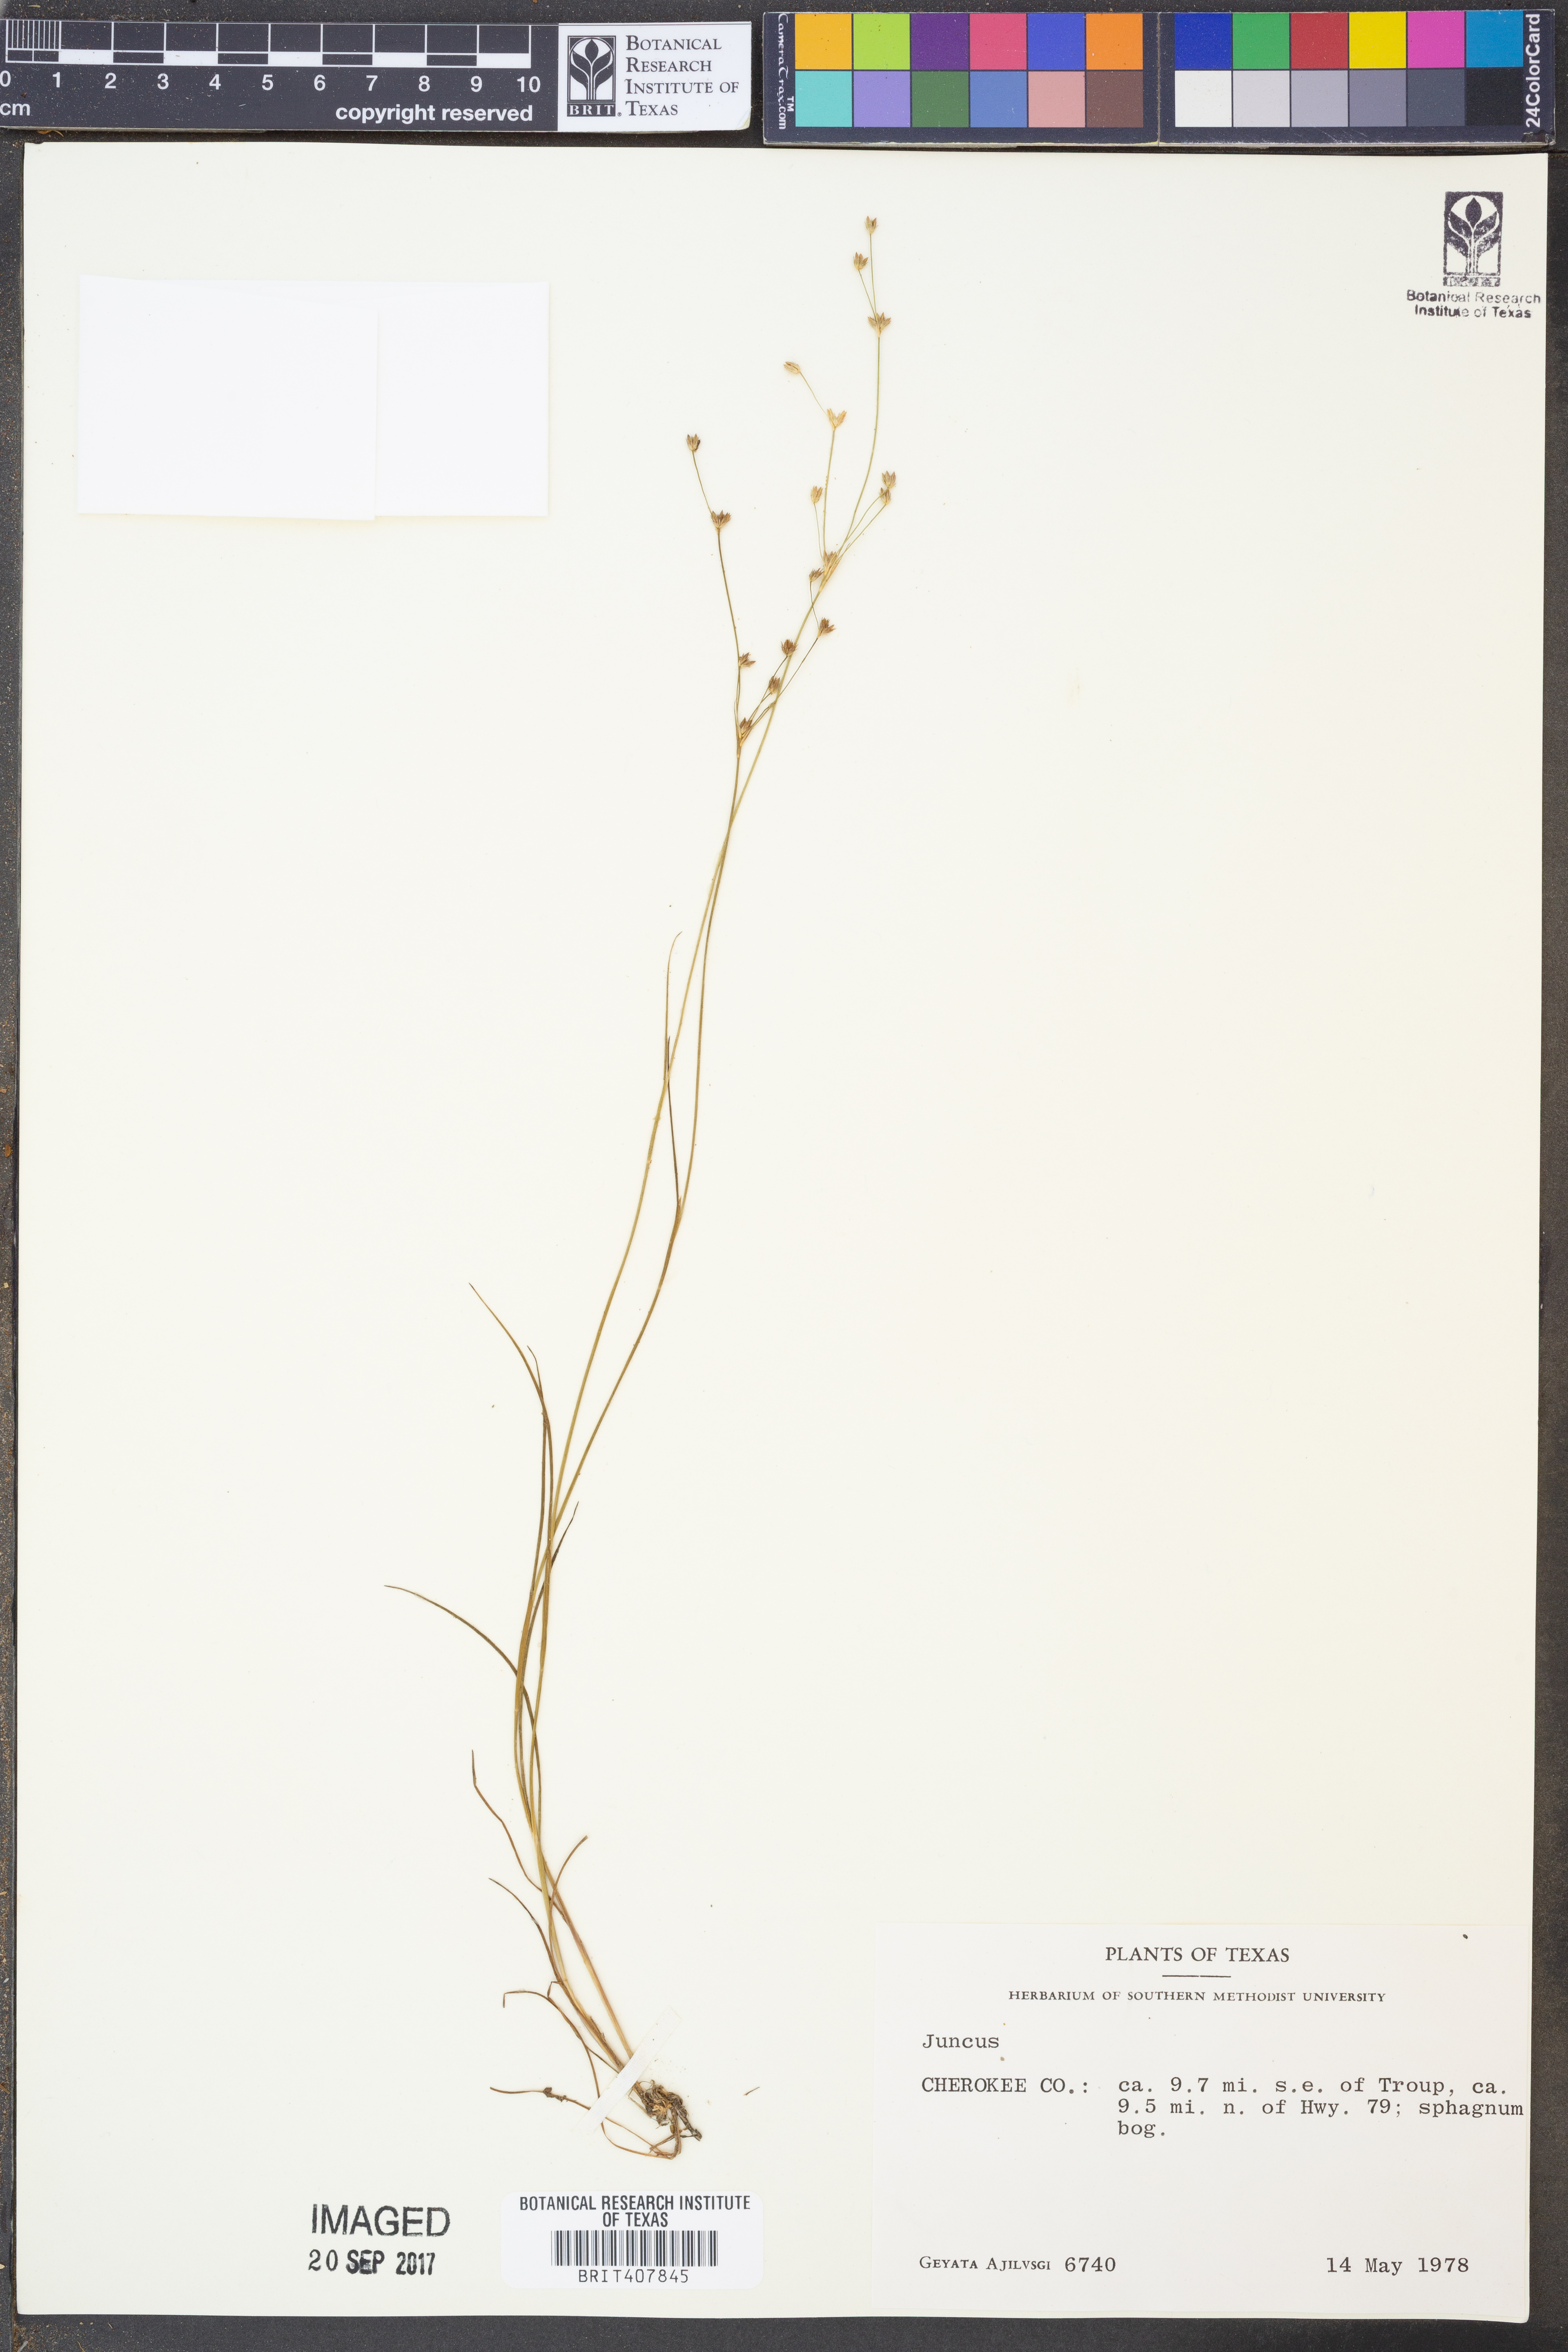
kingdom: Plantae
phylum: Tracheophyta
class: Liliopsida
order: Poales
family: Juncaceae
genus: Juncus
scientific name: Juncus
